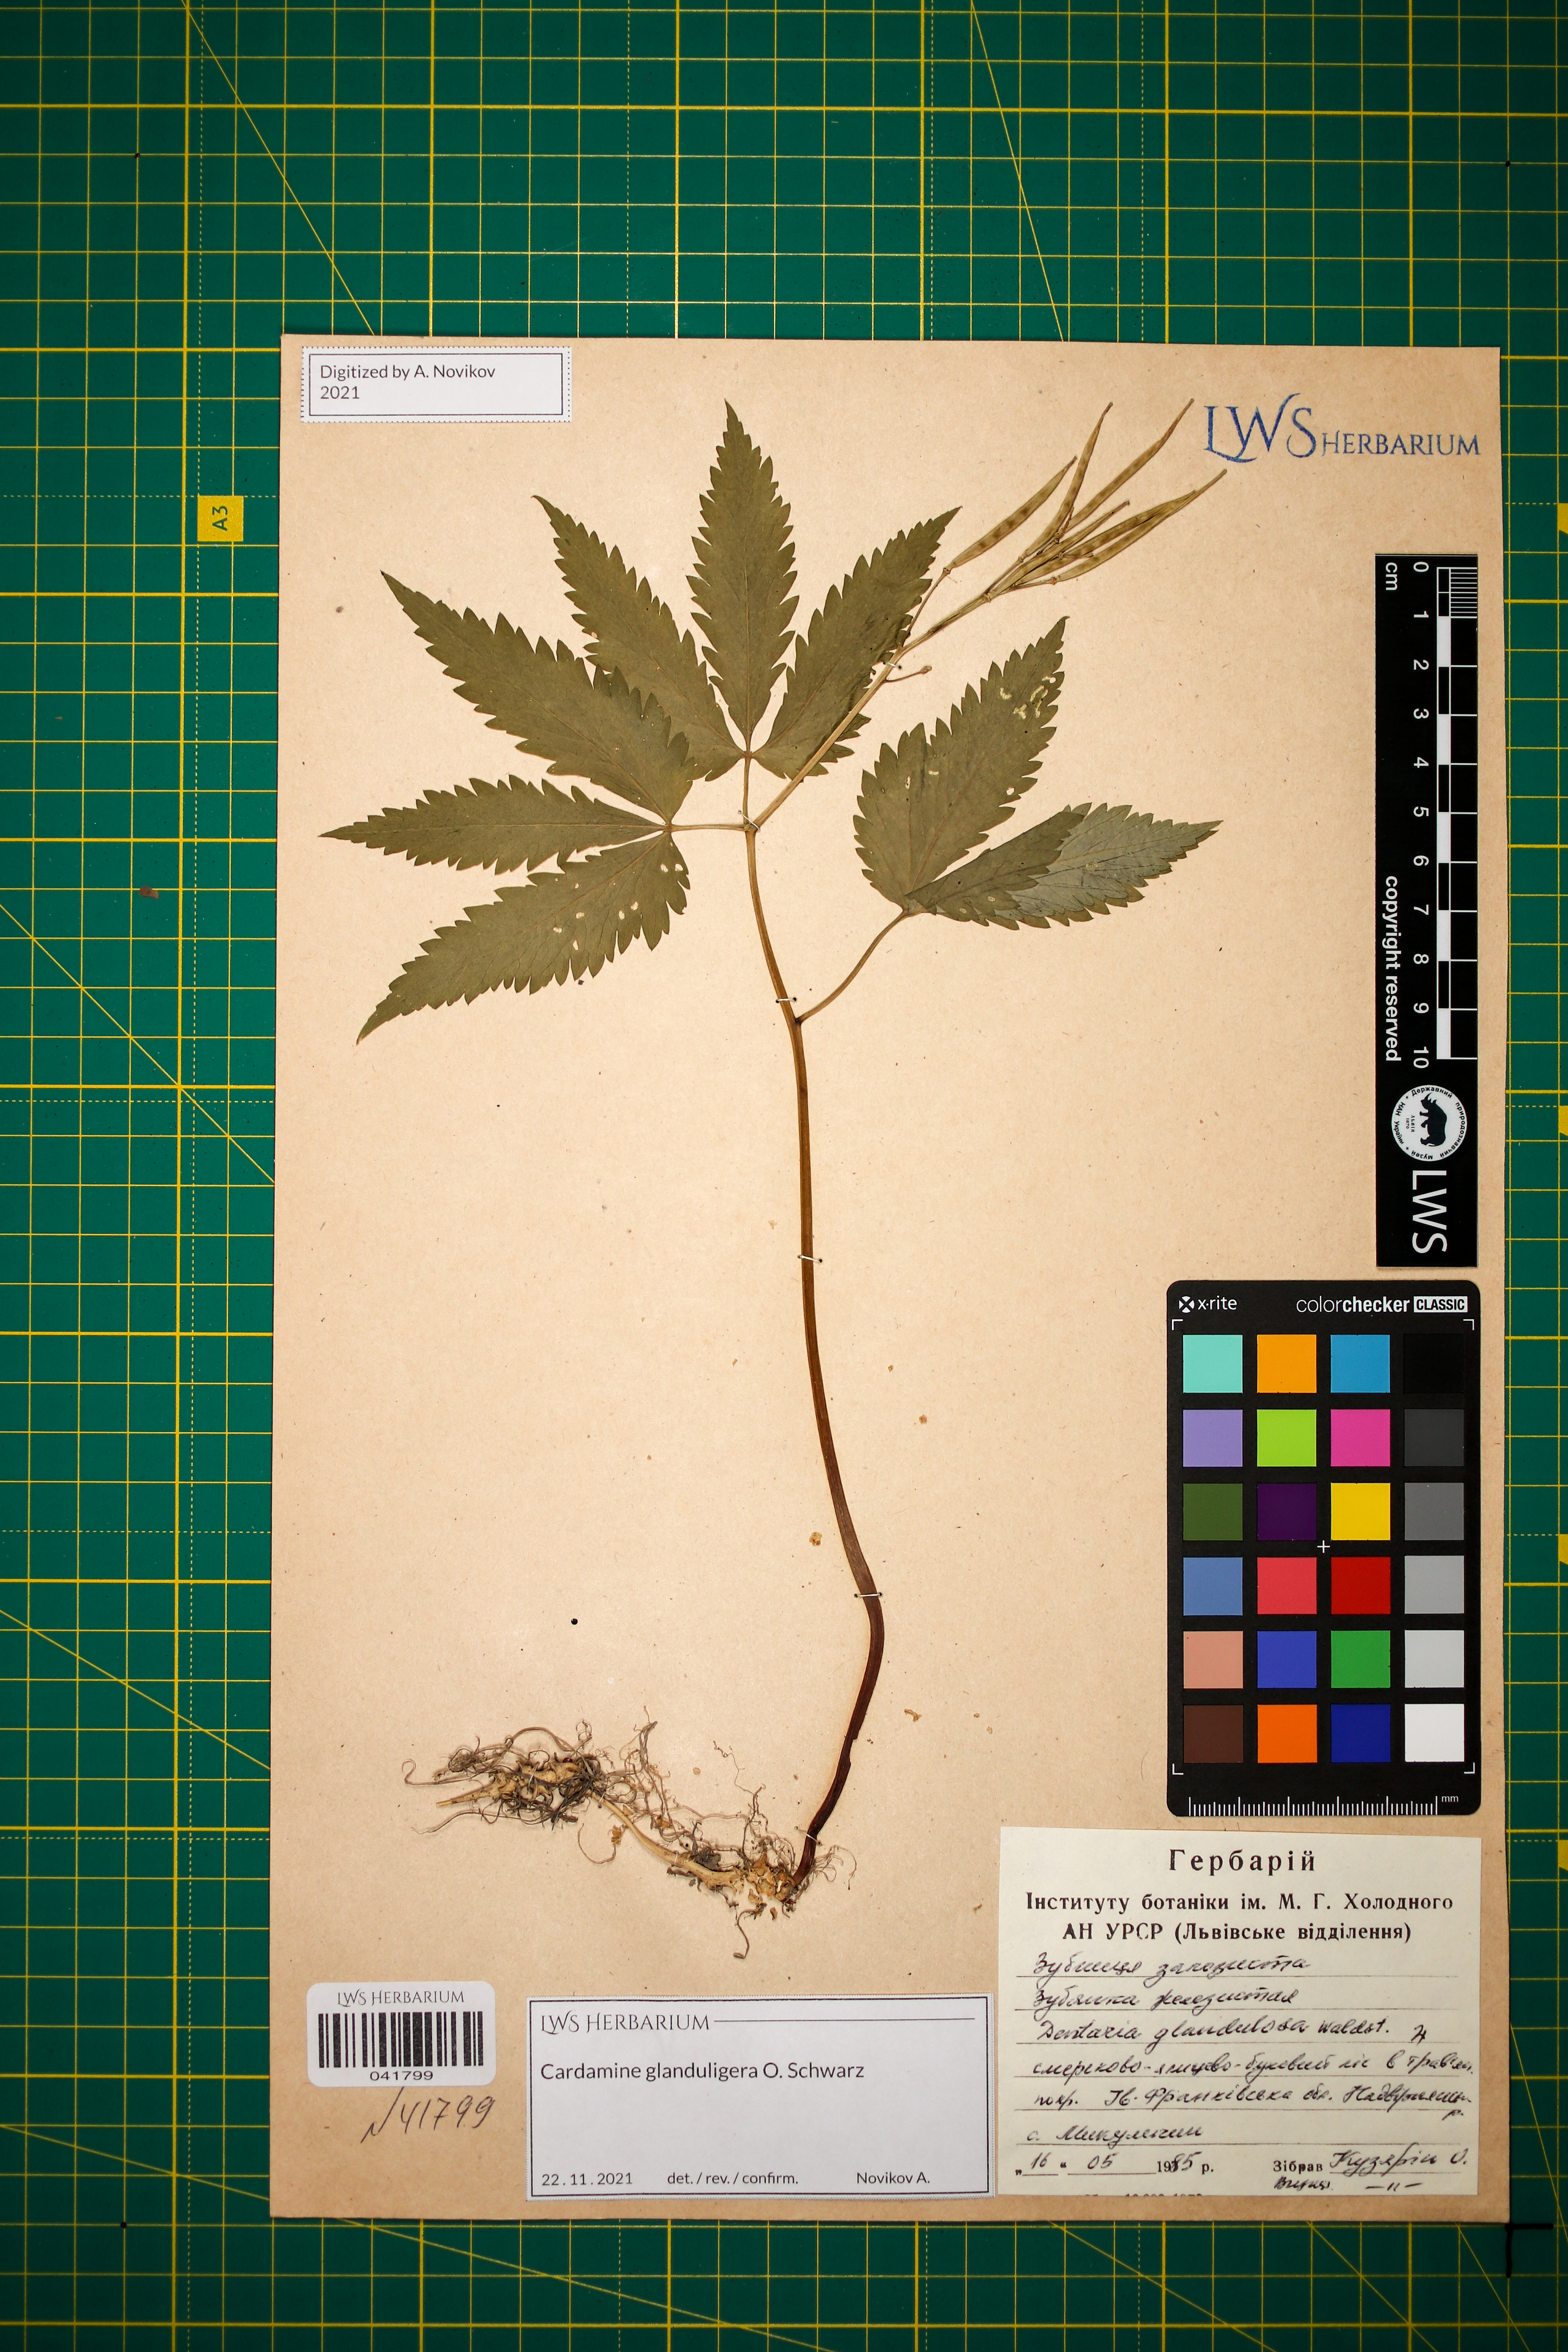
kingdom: Plantae
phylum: Tracheophyta
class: Magnoliopsida
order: Brassicales
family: Brassicaceae
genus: Cardamine
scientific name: Cardamine glanduligera
